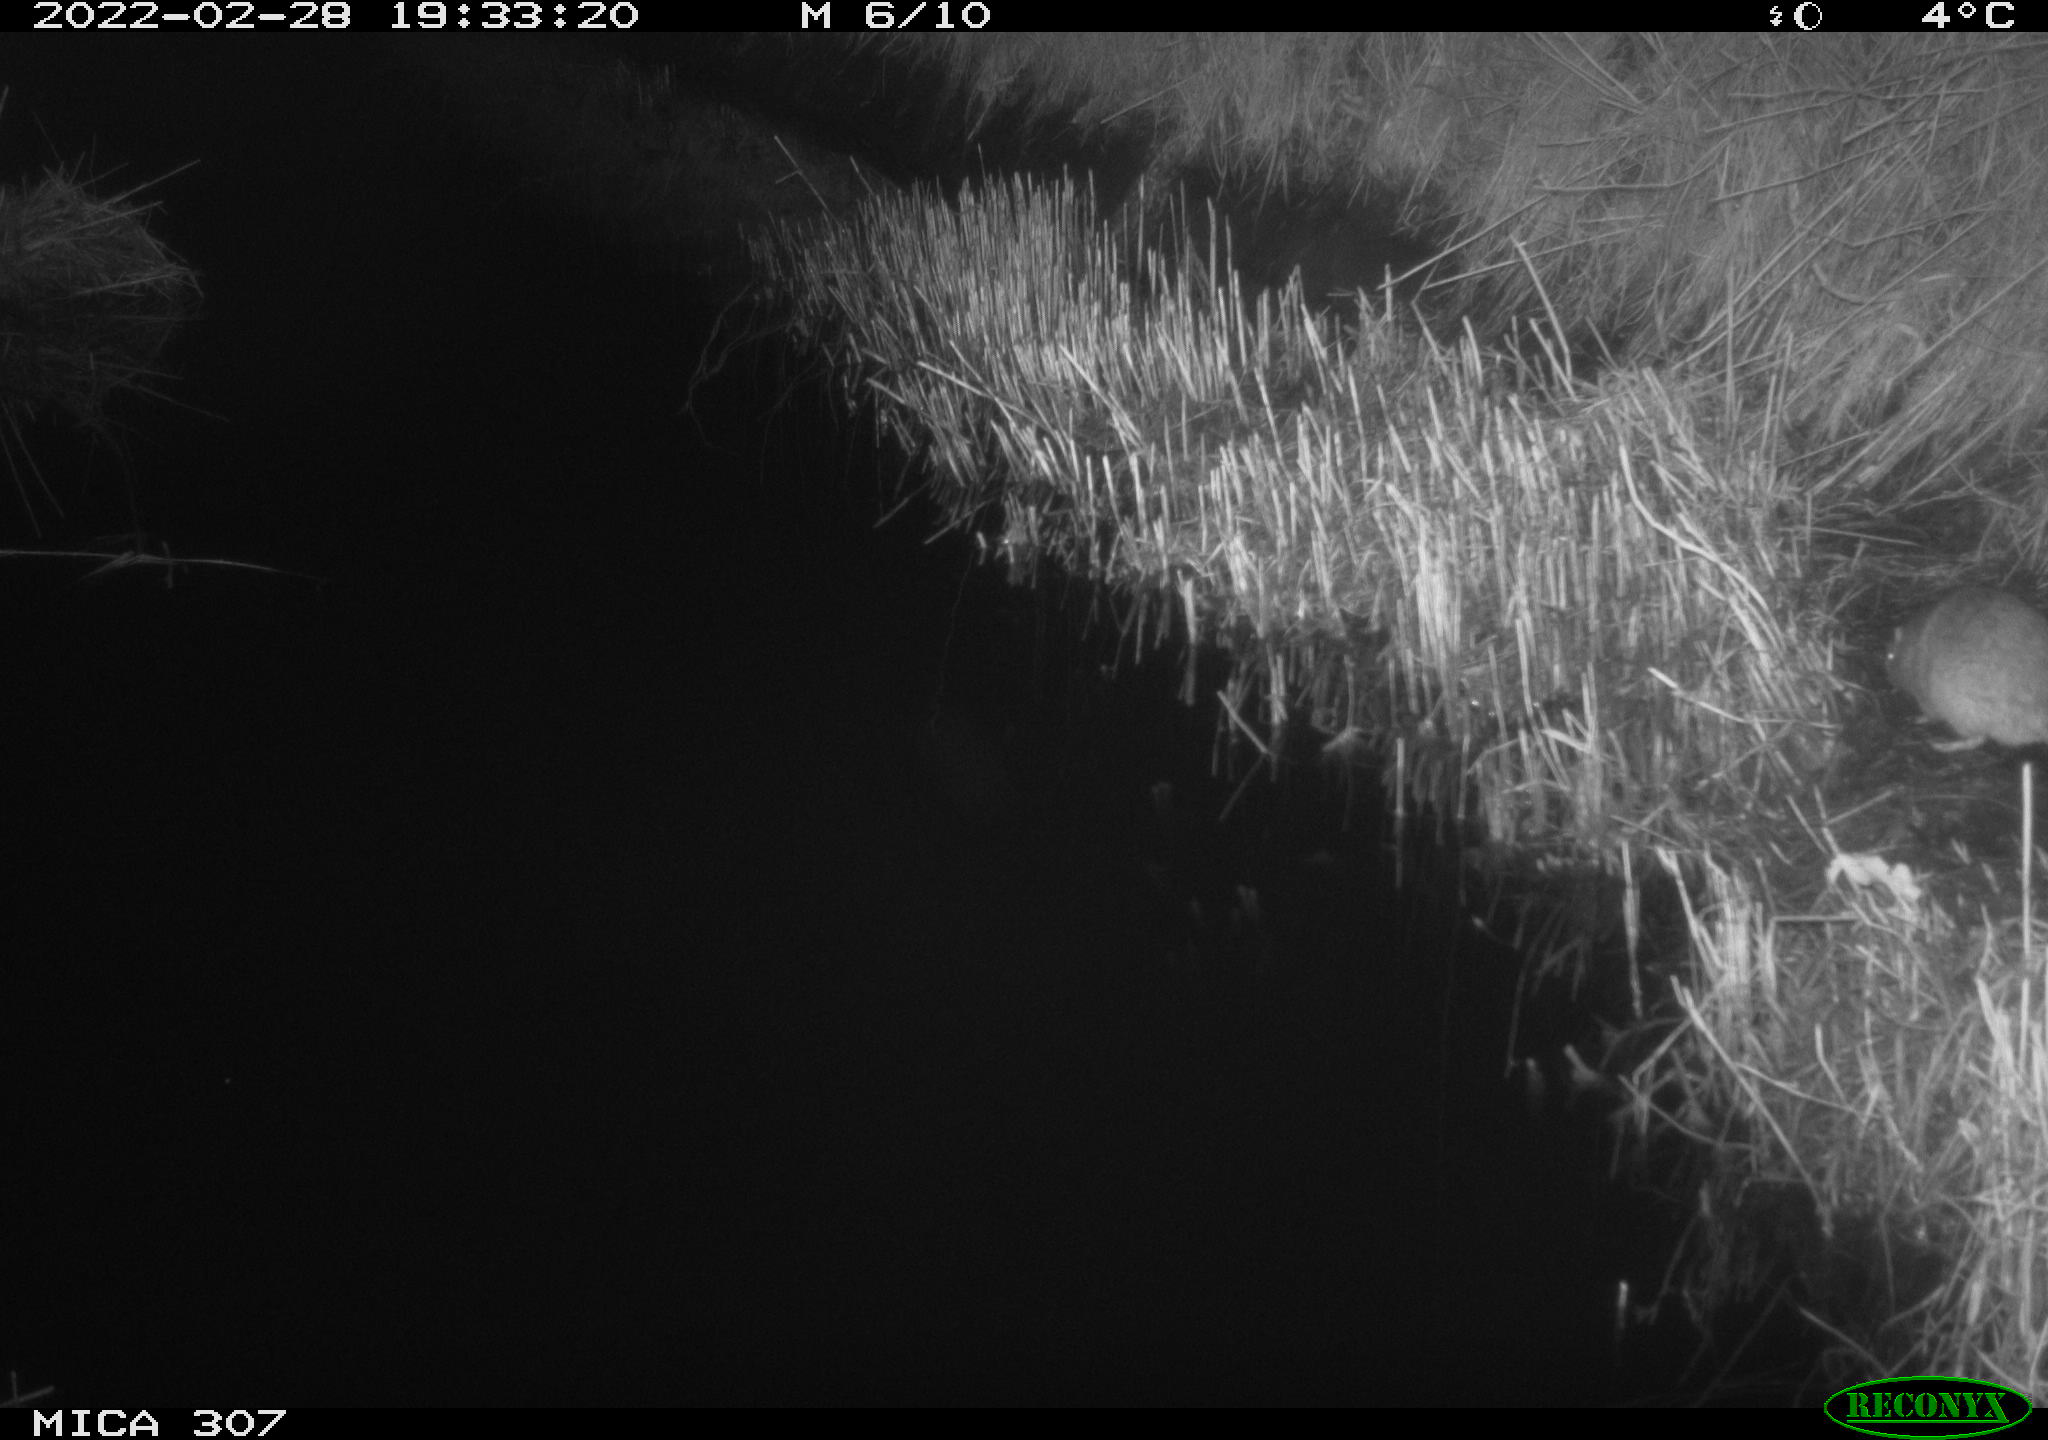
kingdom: Animalia
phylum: Chordata
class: Mammalia
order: Rodentia
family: Muridae
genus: Rattus
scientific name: Rattus norvegicus
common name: Brown rat
